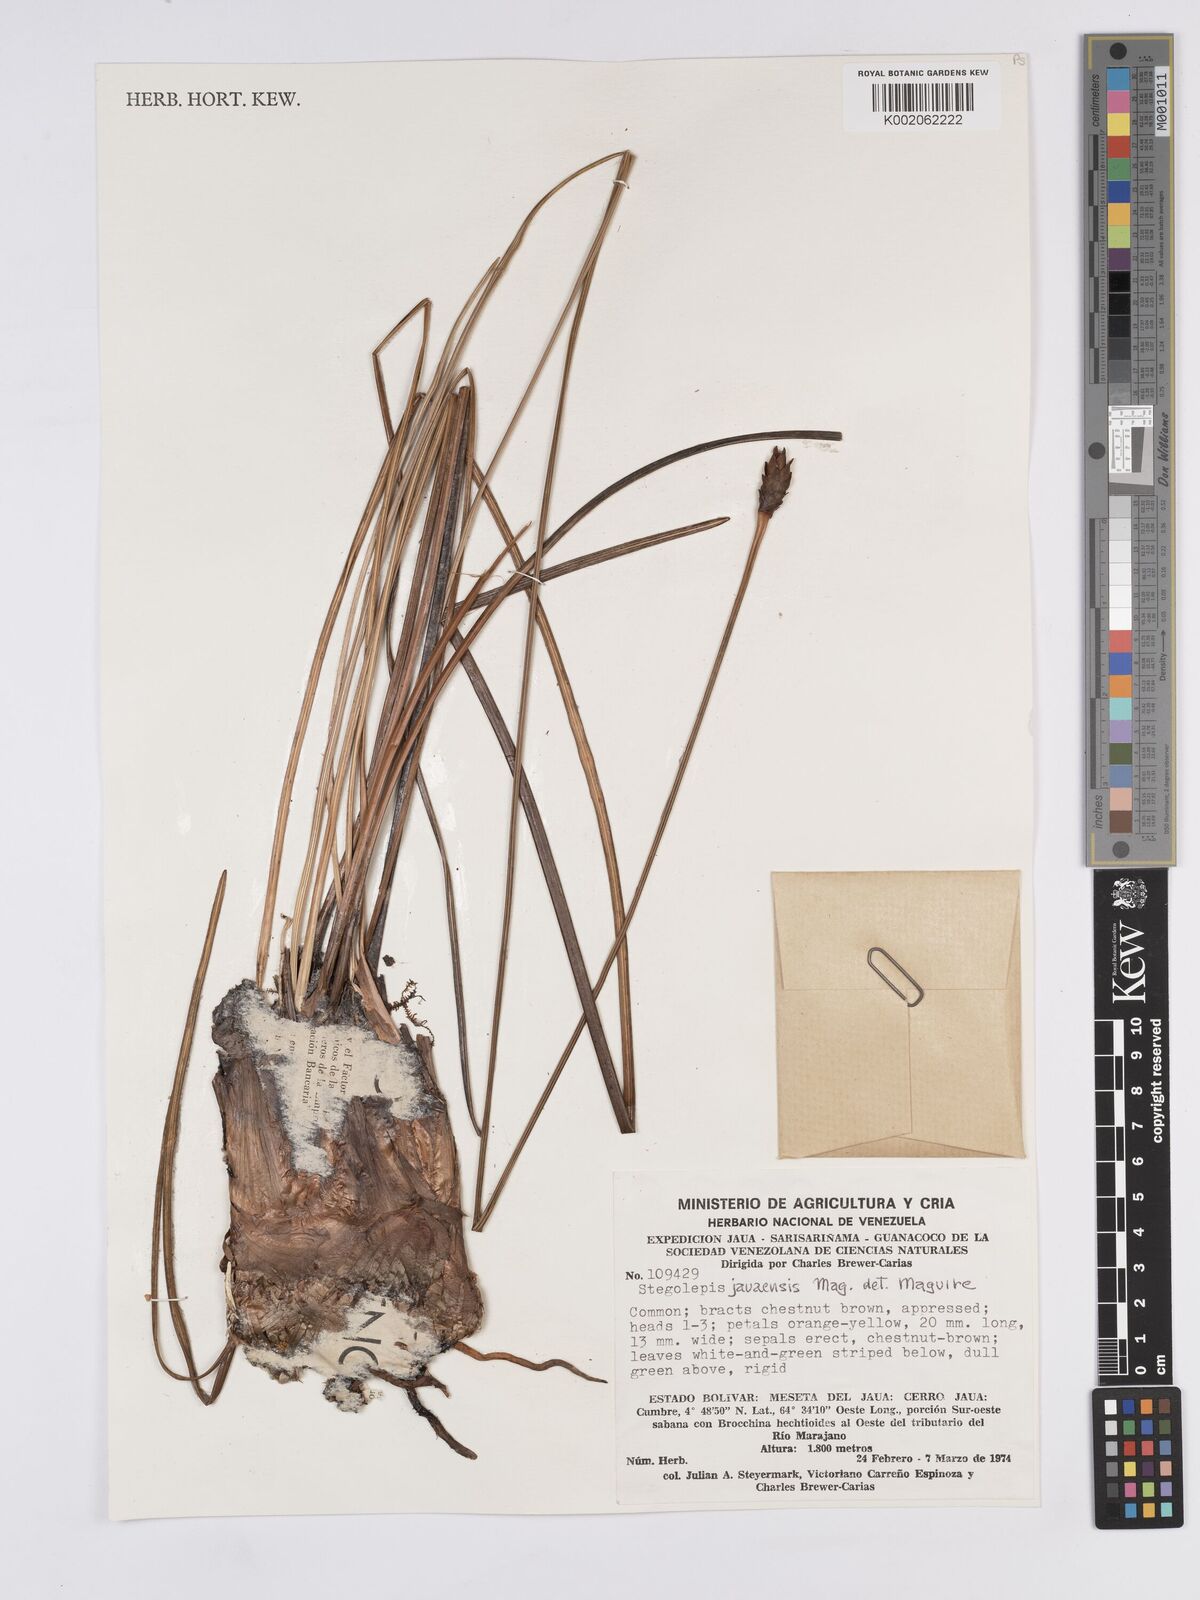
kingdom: Plantae
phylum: Tracheophyta
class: Liliopsida
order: Poales
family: Rapateaceae
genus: Stegolepis
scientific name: Stegolepis jauaensis
